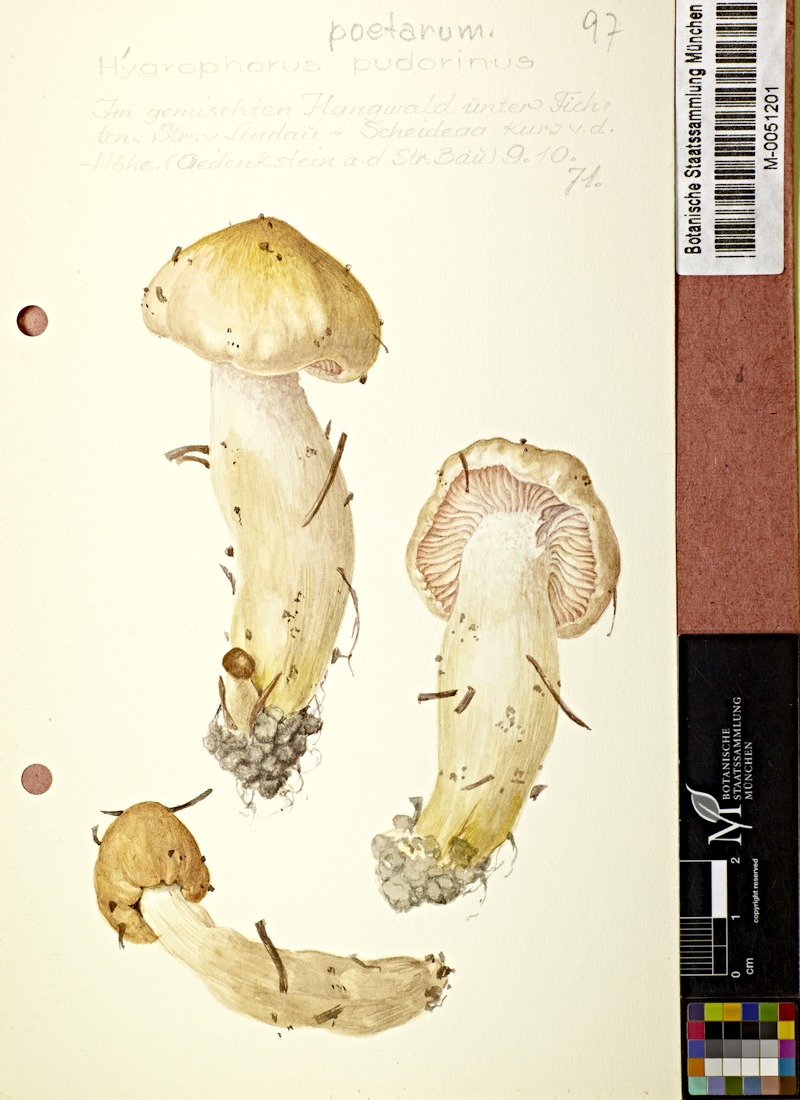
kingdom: Fungi
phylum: Basidiomycota
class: Agaricomycetes
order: Agaricales
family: Hygrophoraceae
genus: Hygrophorus
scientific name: Hygrophorus pudorinus
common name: Rosy woodwax
